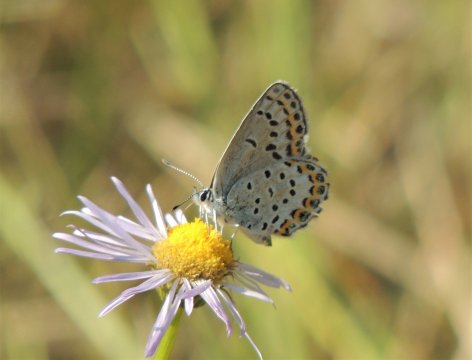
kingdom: Animalia
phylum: Arthropoda
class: Insecta
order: Lepidoptera
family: Lycaenidae
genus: Lycaeides
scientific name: Lycaeides melissa
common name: Melissa Blue
